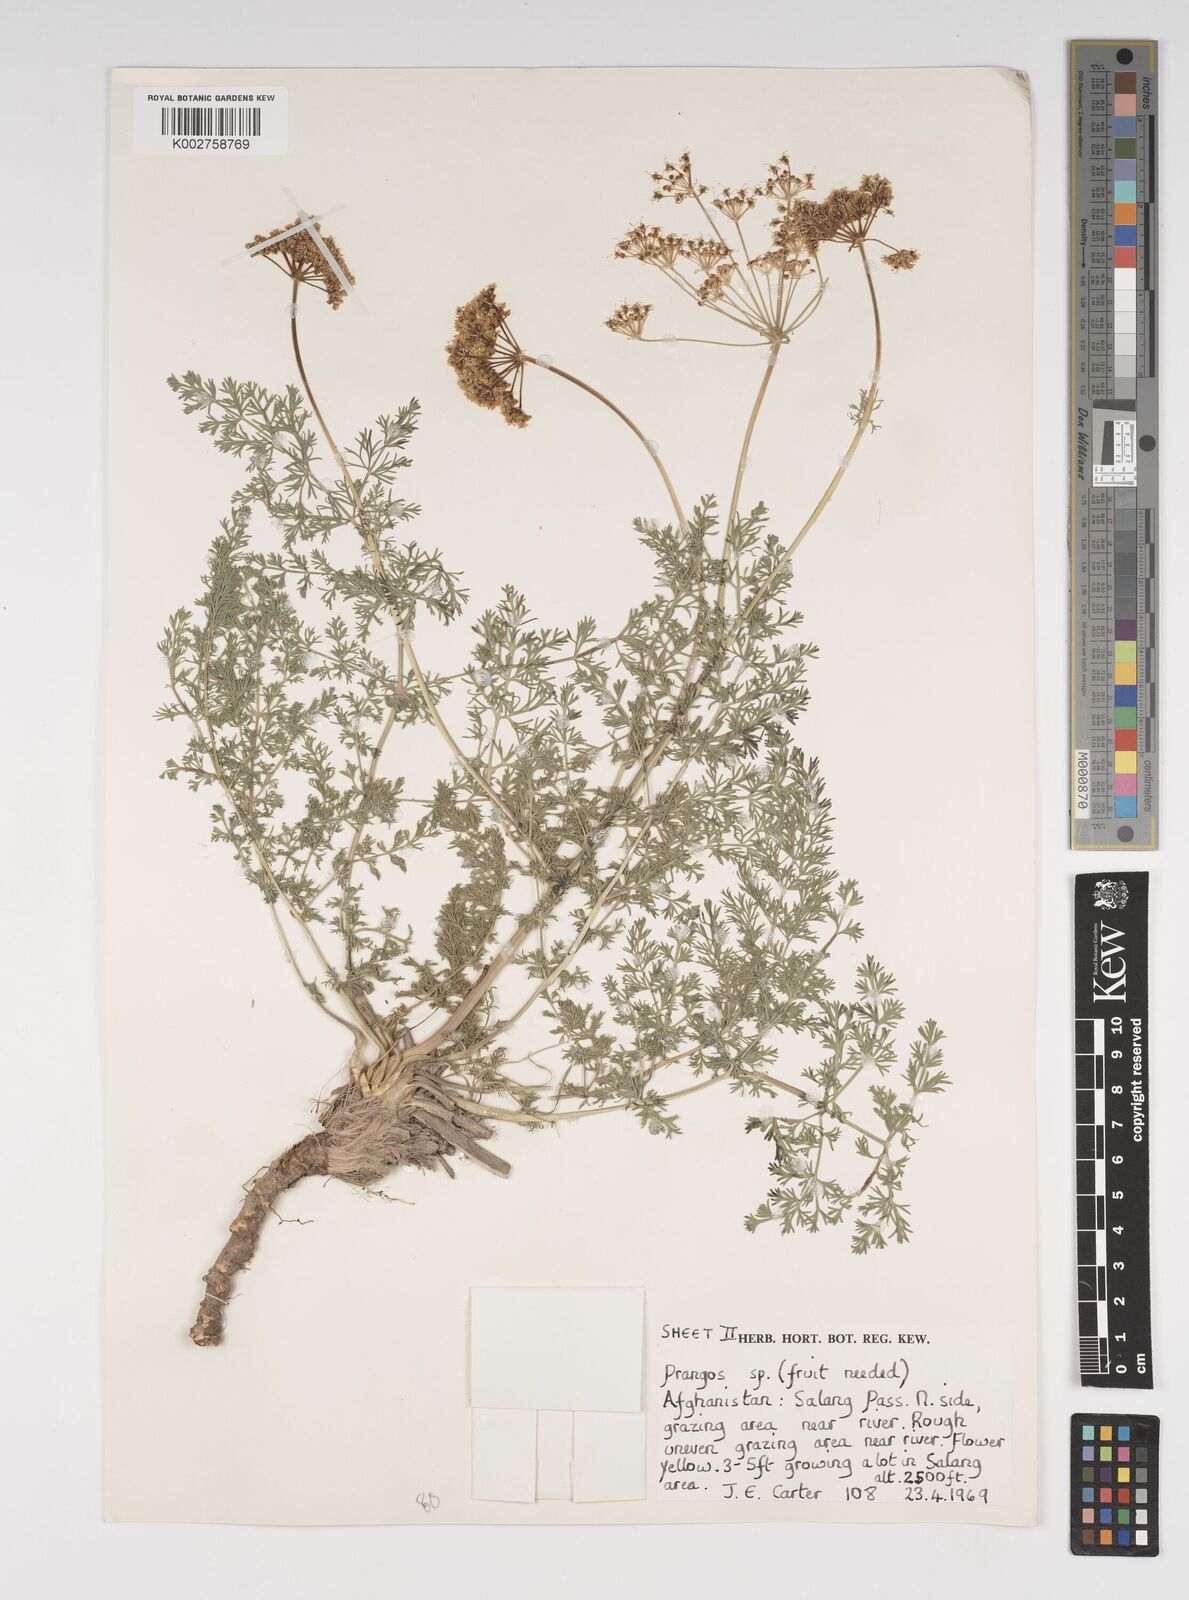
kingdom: Plantae
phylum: Tracheophyta
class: Magnoliopsida
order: Apiales
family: Apiaceae
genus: Cachrys
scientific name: Cachrys
